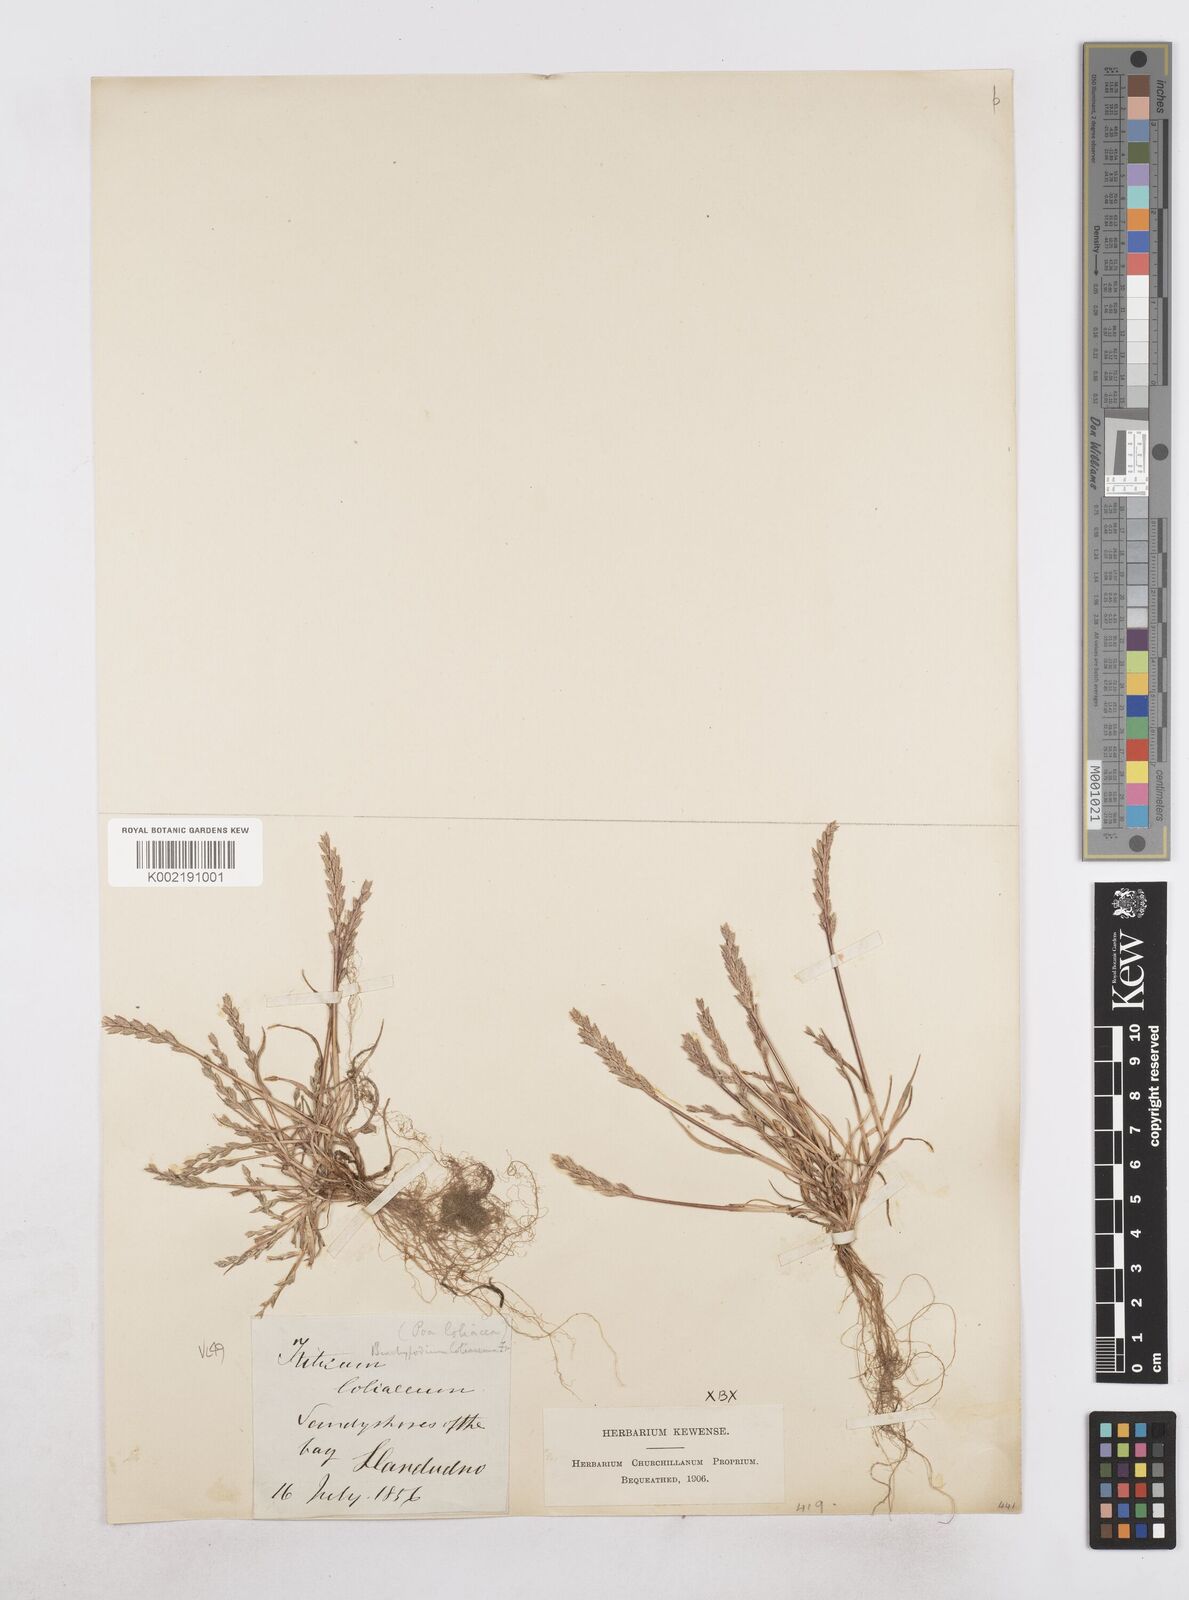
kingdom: Plantae
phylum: Tracheophyta
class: Liliopsida
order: Poales
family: Poaceae
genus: Catapodium
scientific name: Catapodium marinum
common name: Sea fern-grass
